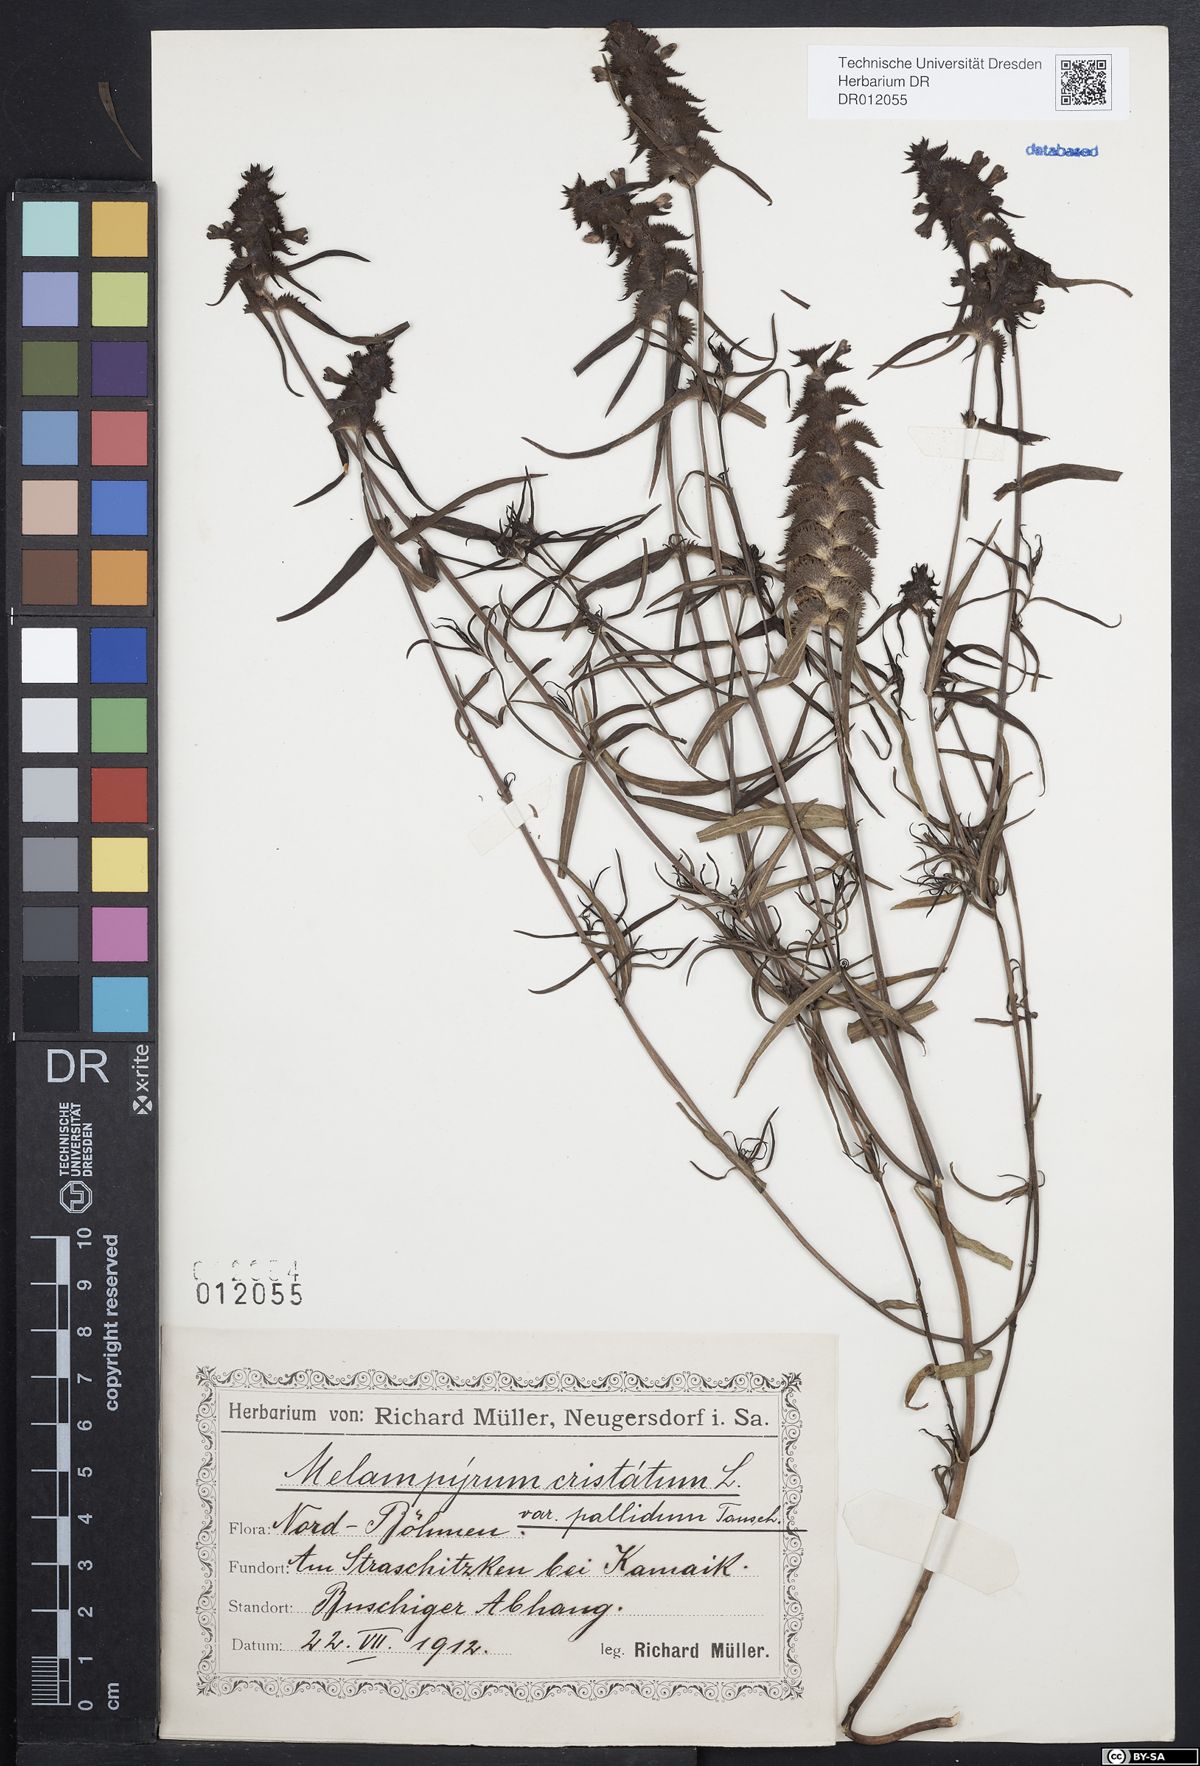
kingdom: Plantae
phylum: Tracheophyta
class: Magnoliopsida
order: Lamiales
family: Orobanchaceae
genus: Melampyrum
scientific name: Melampyrum cristatum
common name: Crested cow-wheat
